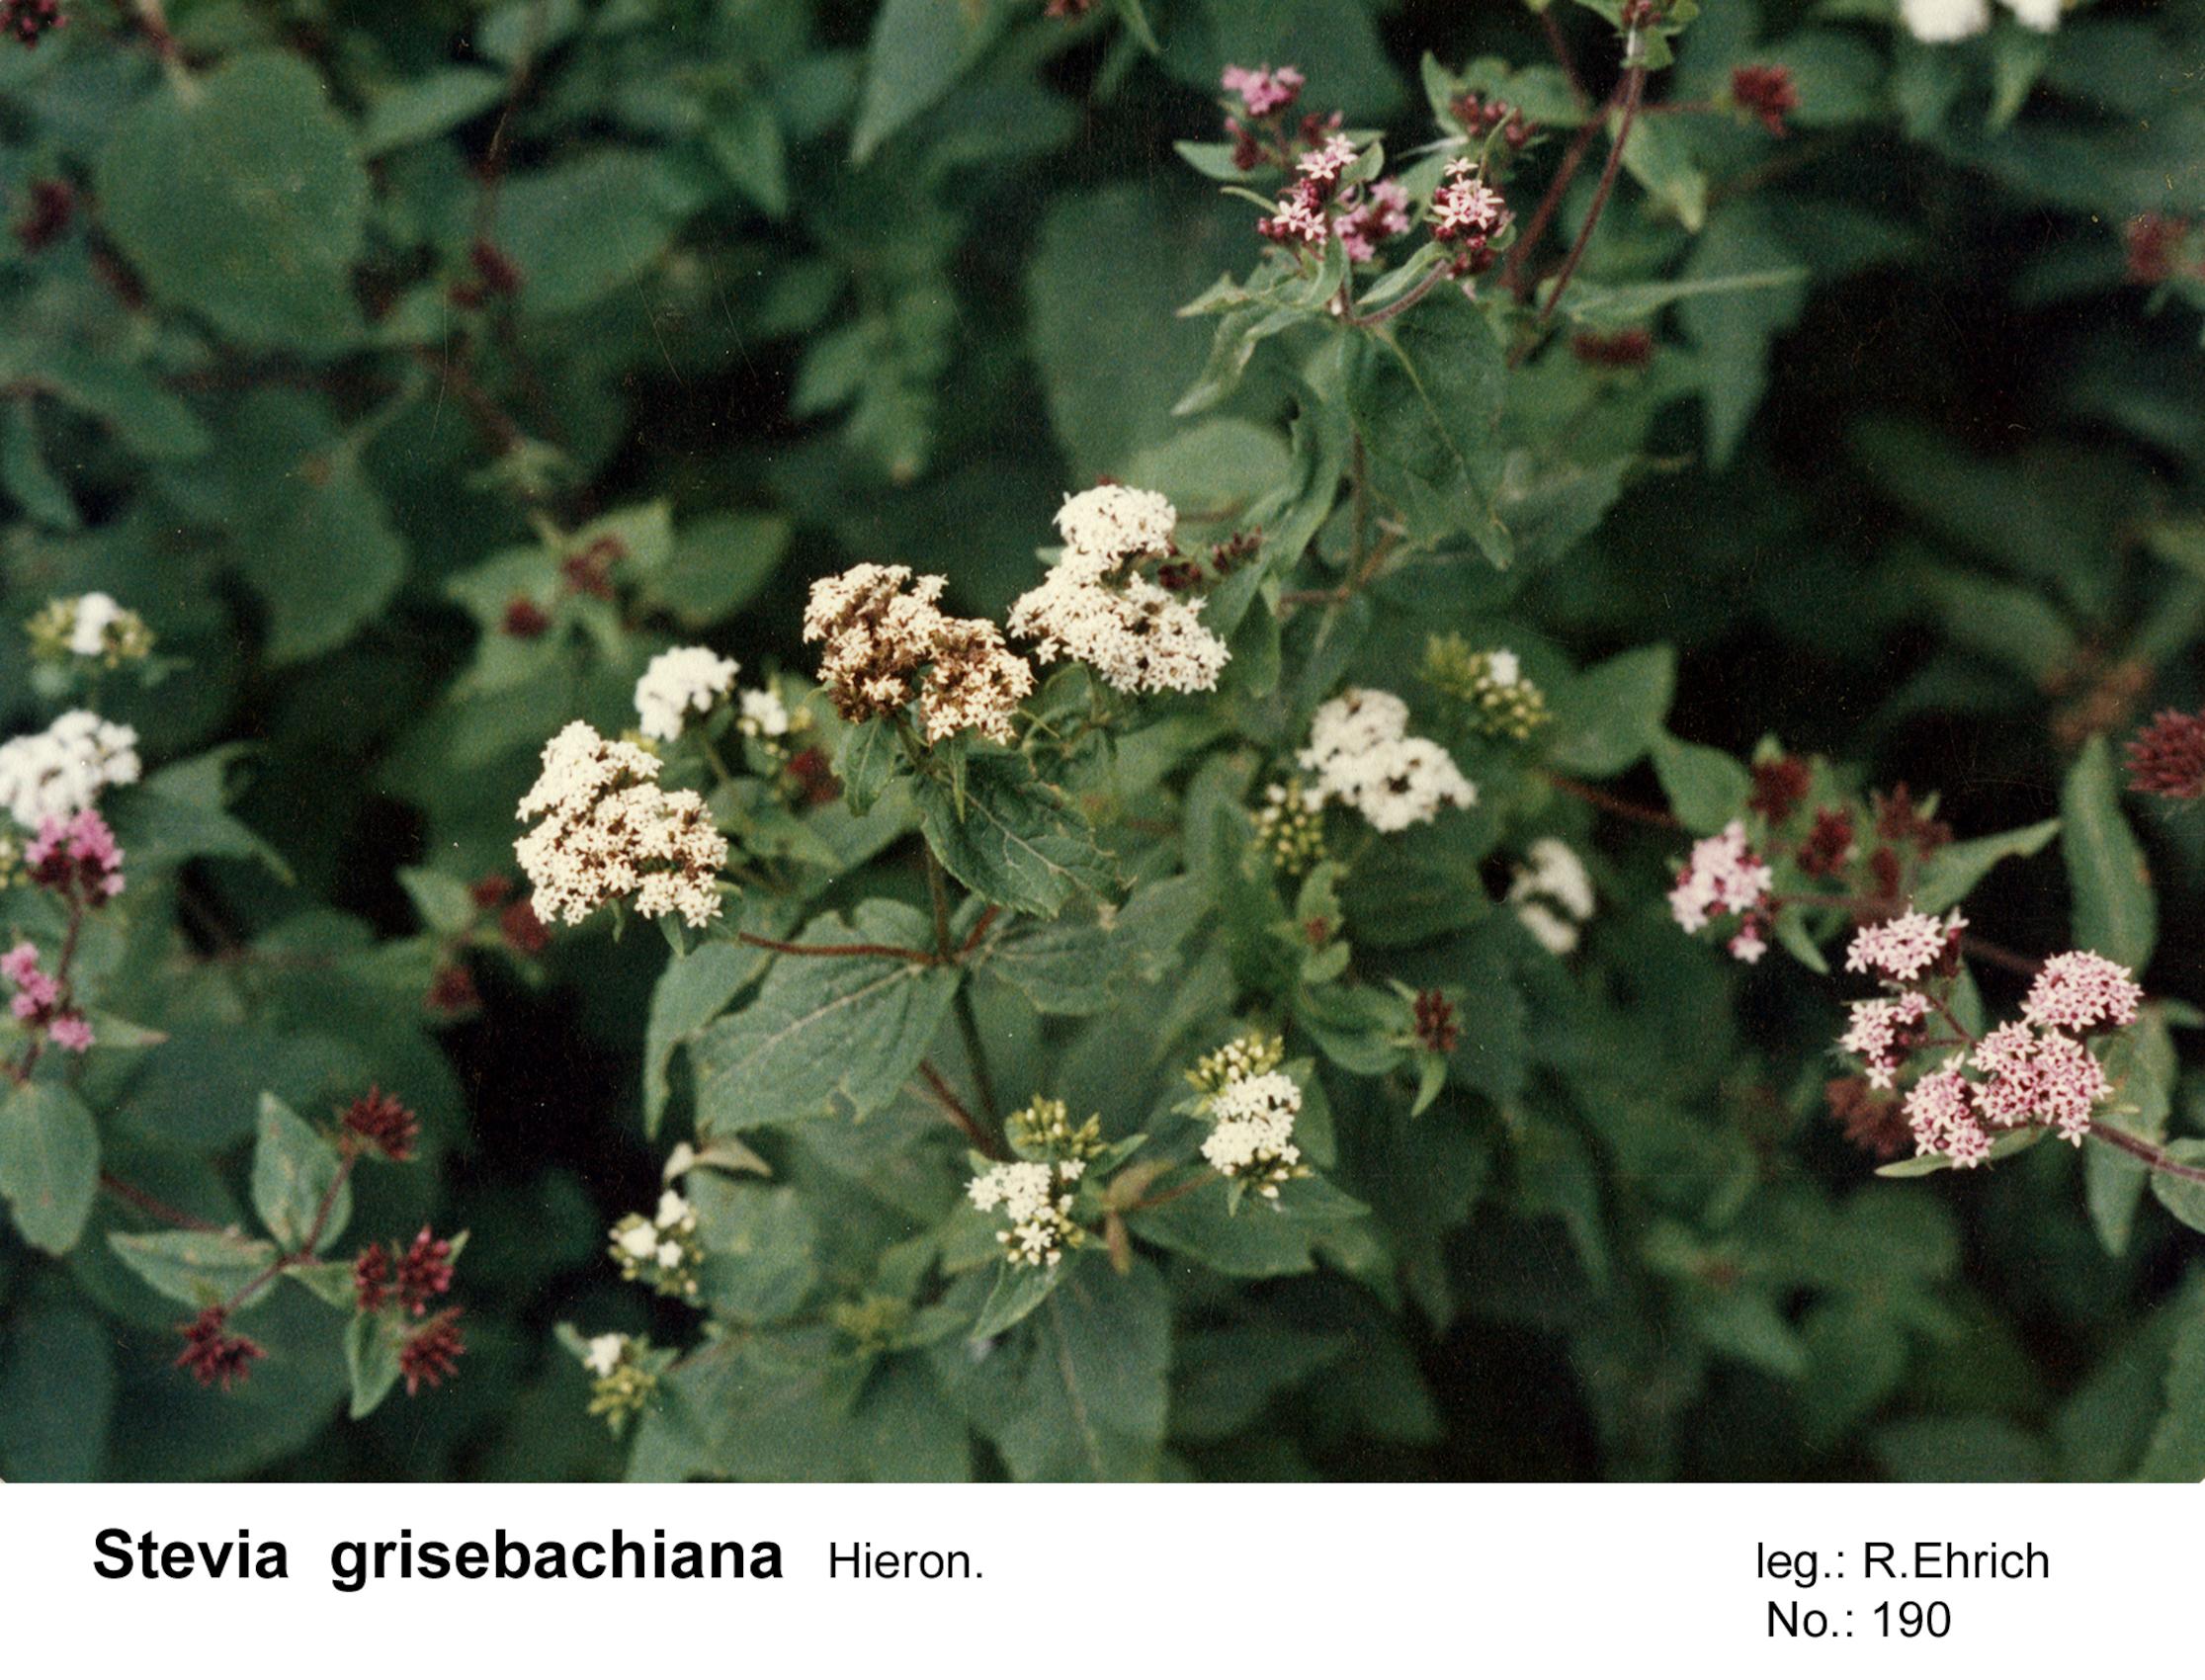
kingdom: Plantae
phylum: Tracheophyta
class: Magnoliopsida
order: Asterales
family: Asteraceae
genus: Stevia
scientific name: Stevia grisebachiana
